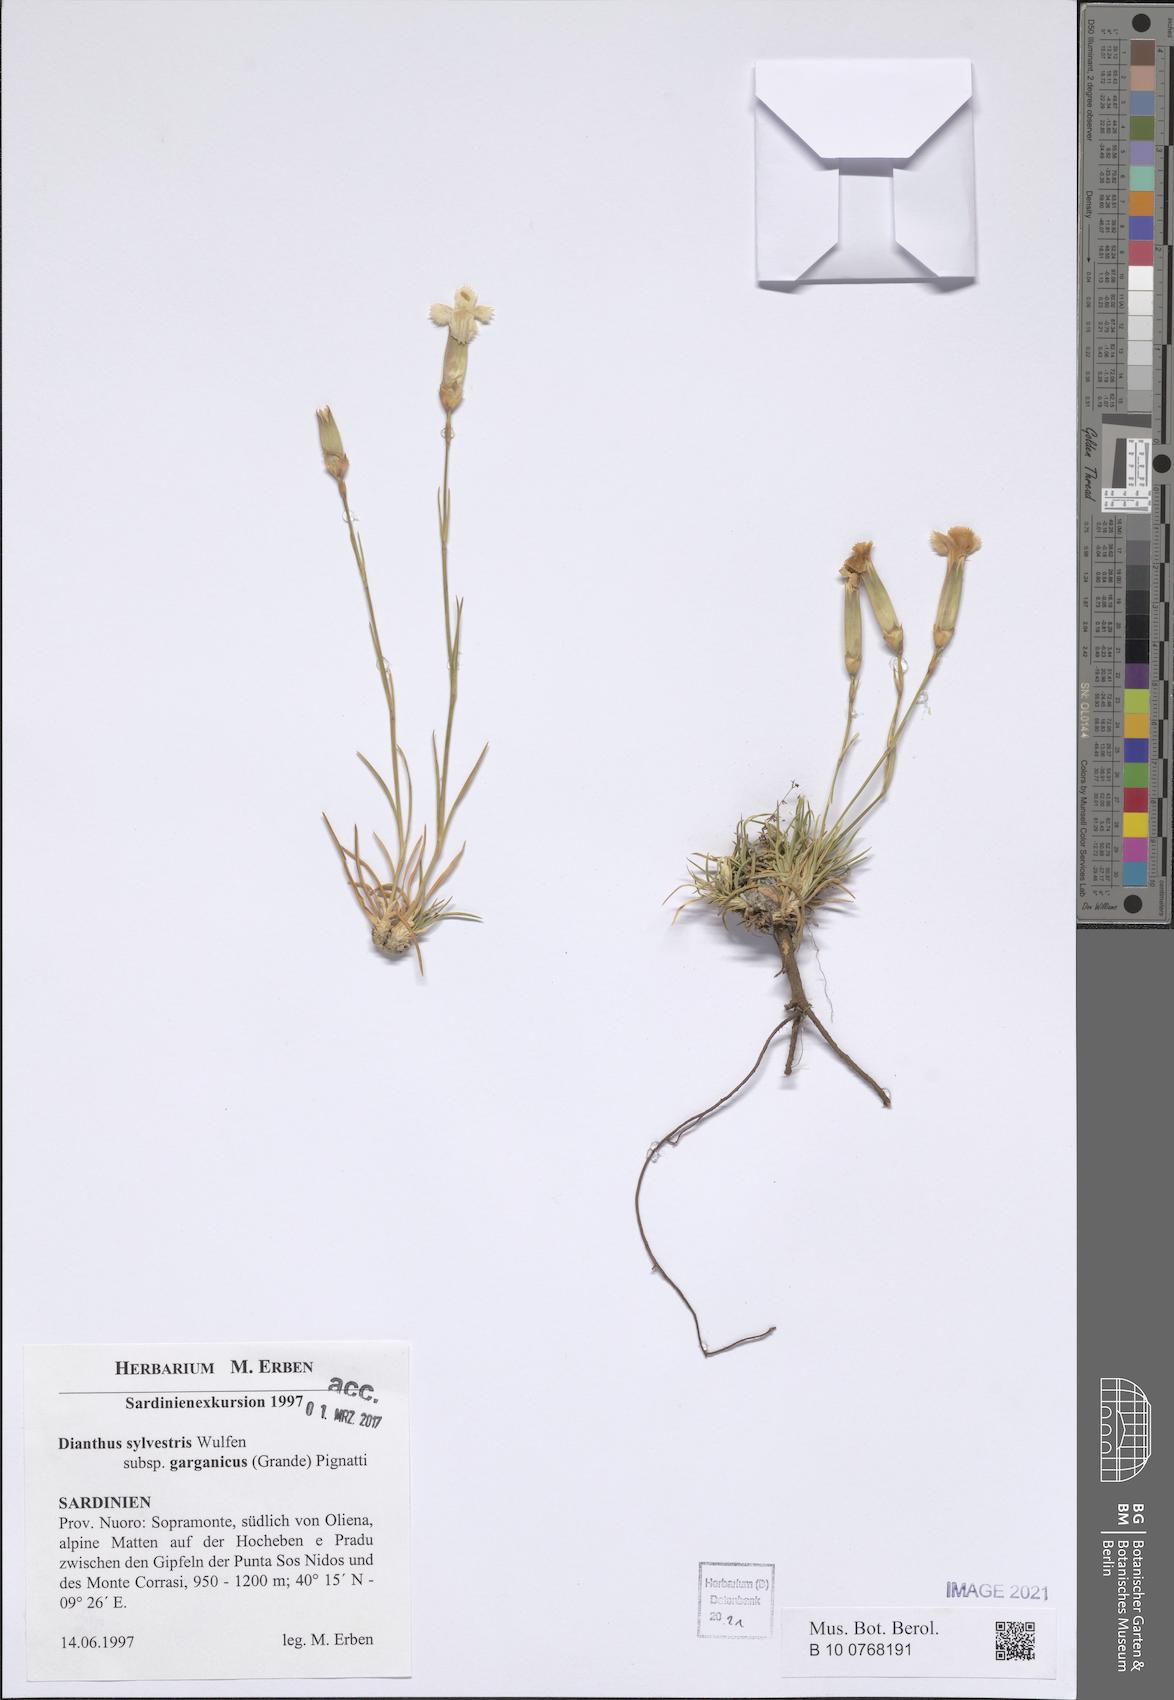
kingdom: Plantae
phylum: Tracheophyta
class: Magnoliopsida
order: Caryophyllales
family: Caryophyllaceae
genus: Dianthus
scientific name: Dianthus tarentinus
